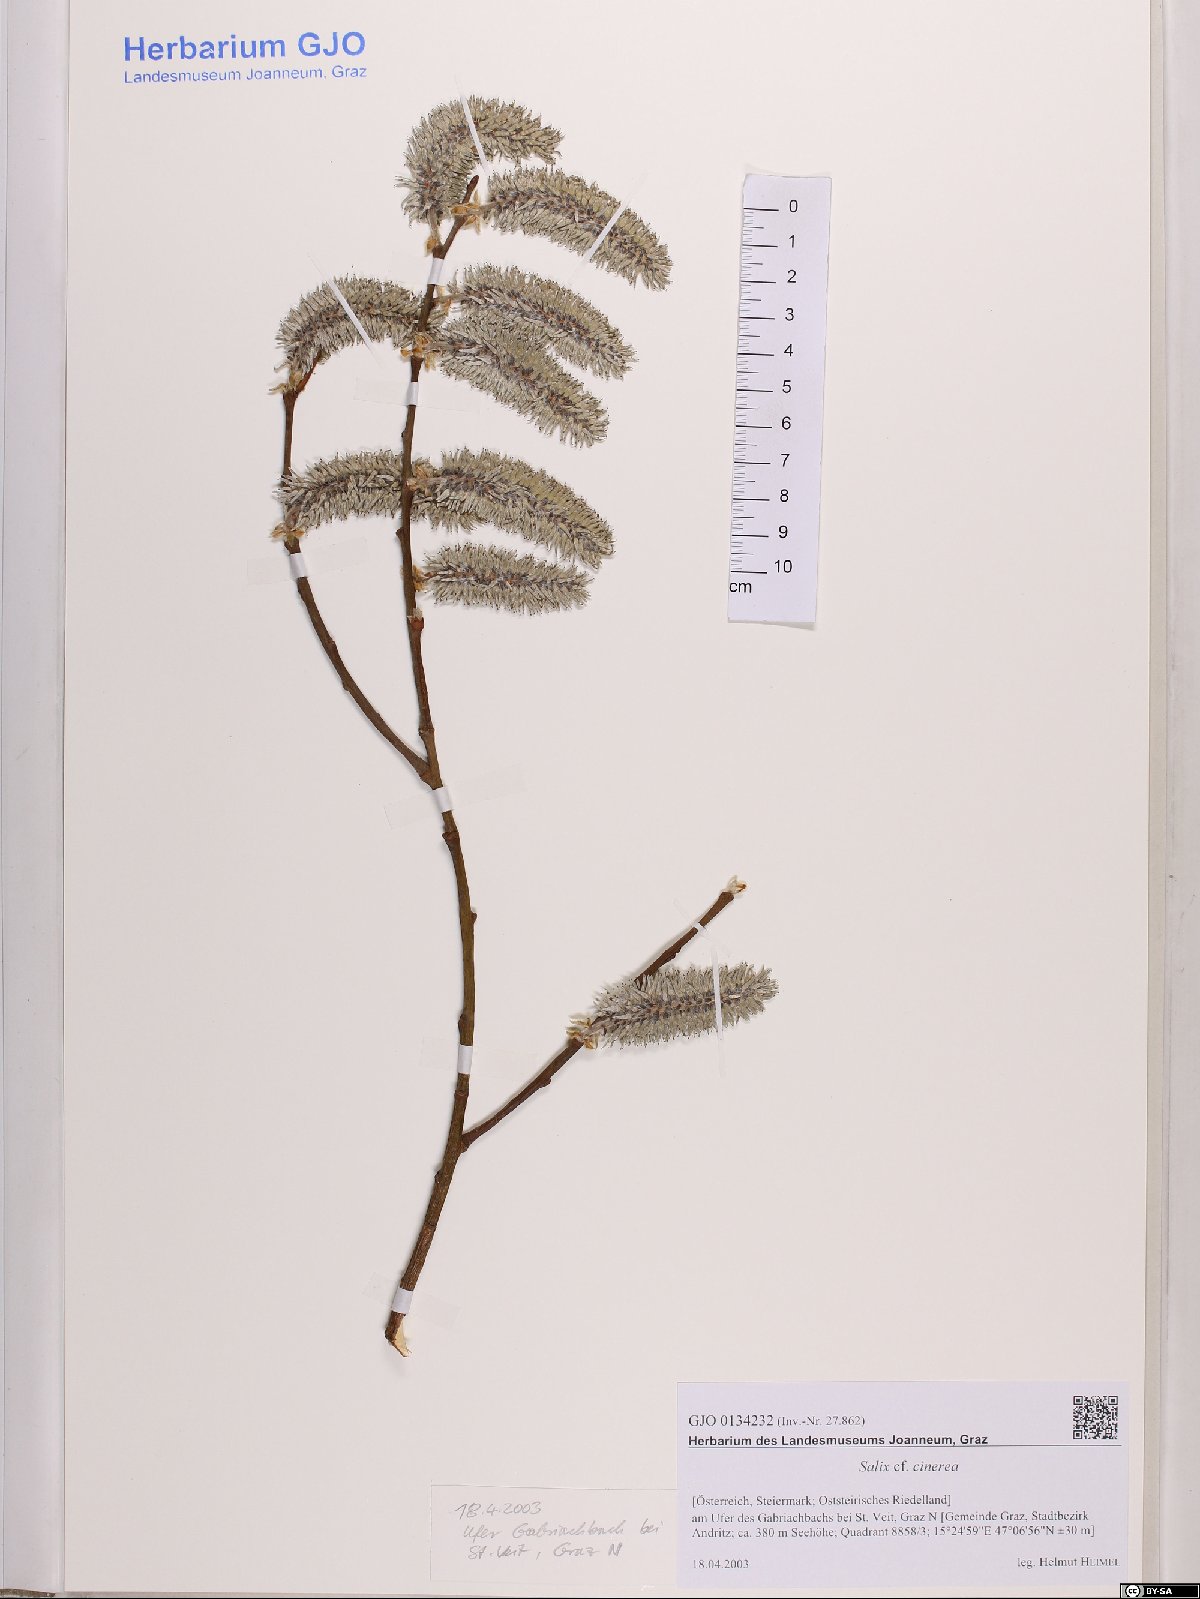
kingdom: Plantae
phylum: Tracheophyta
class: Magnoliopsida
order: Malpighiales
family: Salicaceae
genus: Salix
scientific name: Salix cinerea
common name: Common sallow
